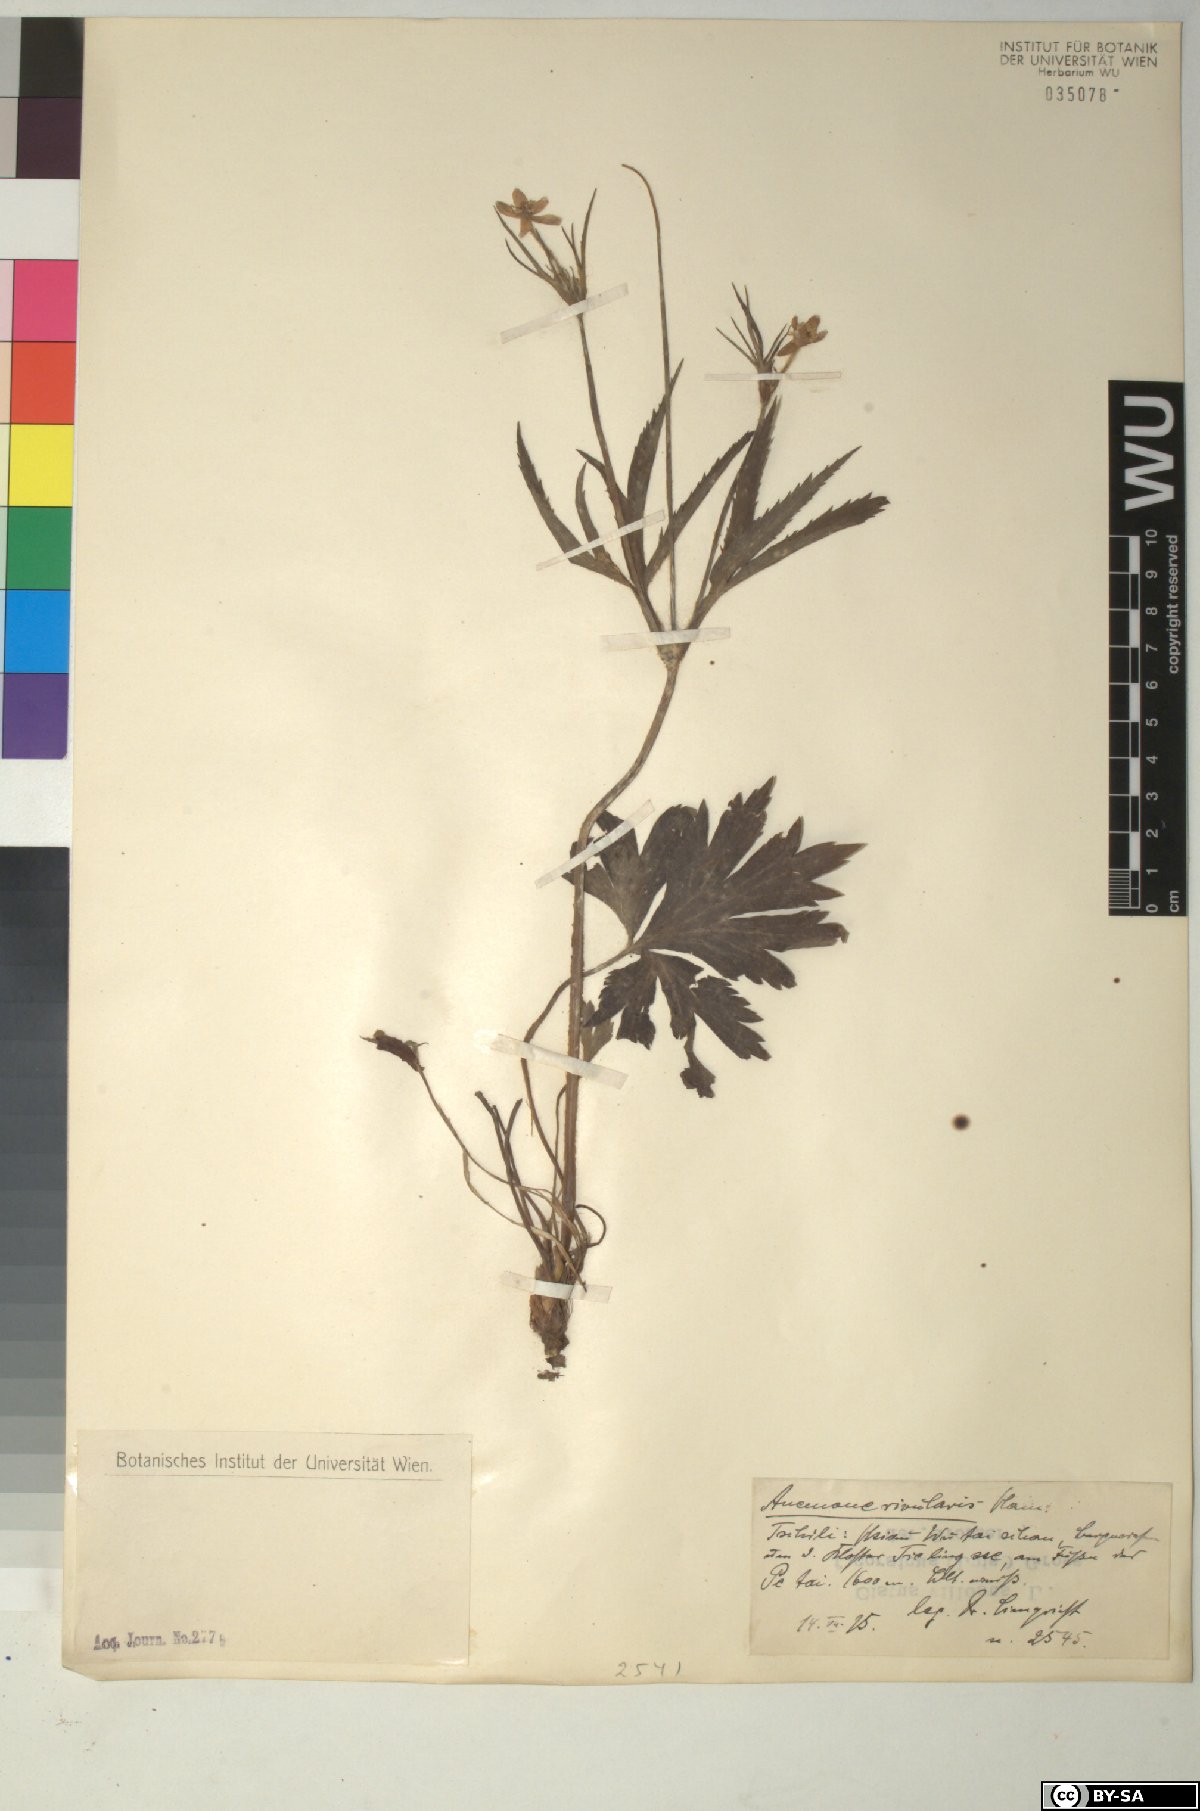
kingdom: Plantae
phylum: Tracheophyta
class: Magnoliopsida
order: Ranunculales
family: Ranunculaceae
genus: Eriocapitella
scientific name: Eriocapitella rivularis
